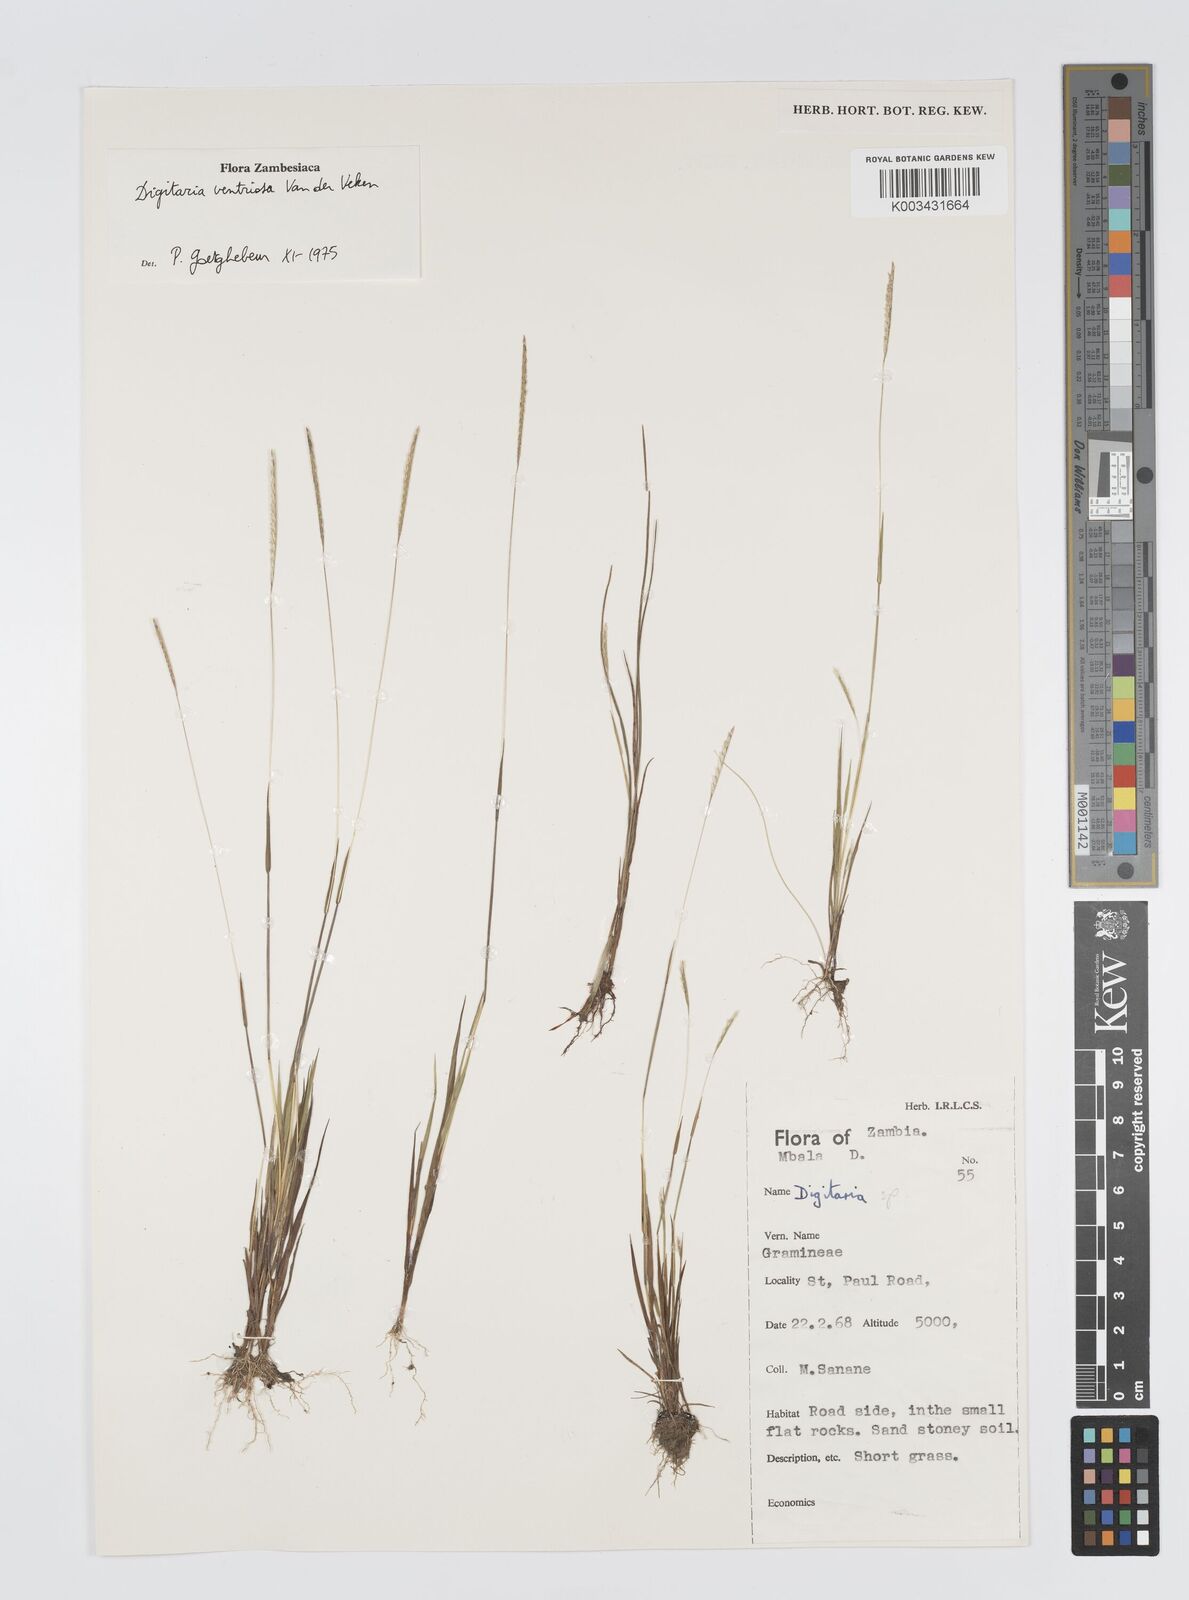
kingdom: Plantae
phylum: Tracheophyta
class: Liliopsida
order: Poales
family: Poaceae
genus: Digitaria
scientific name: Digitaria ventriosa
